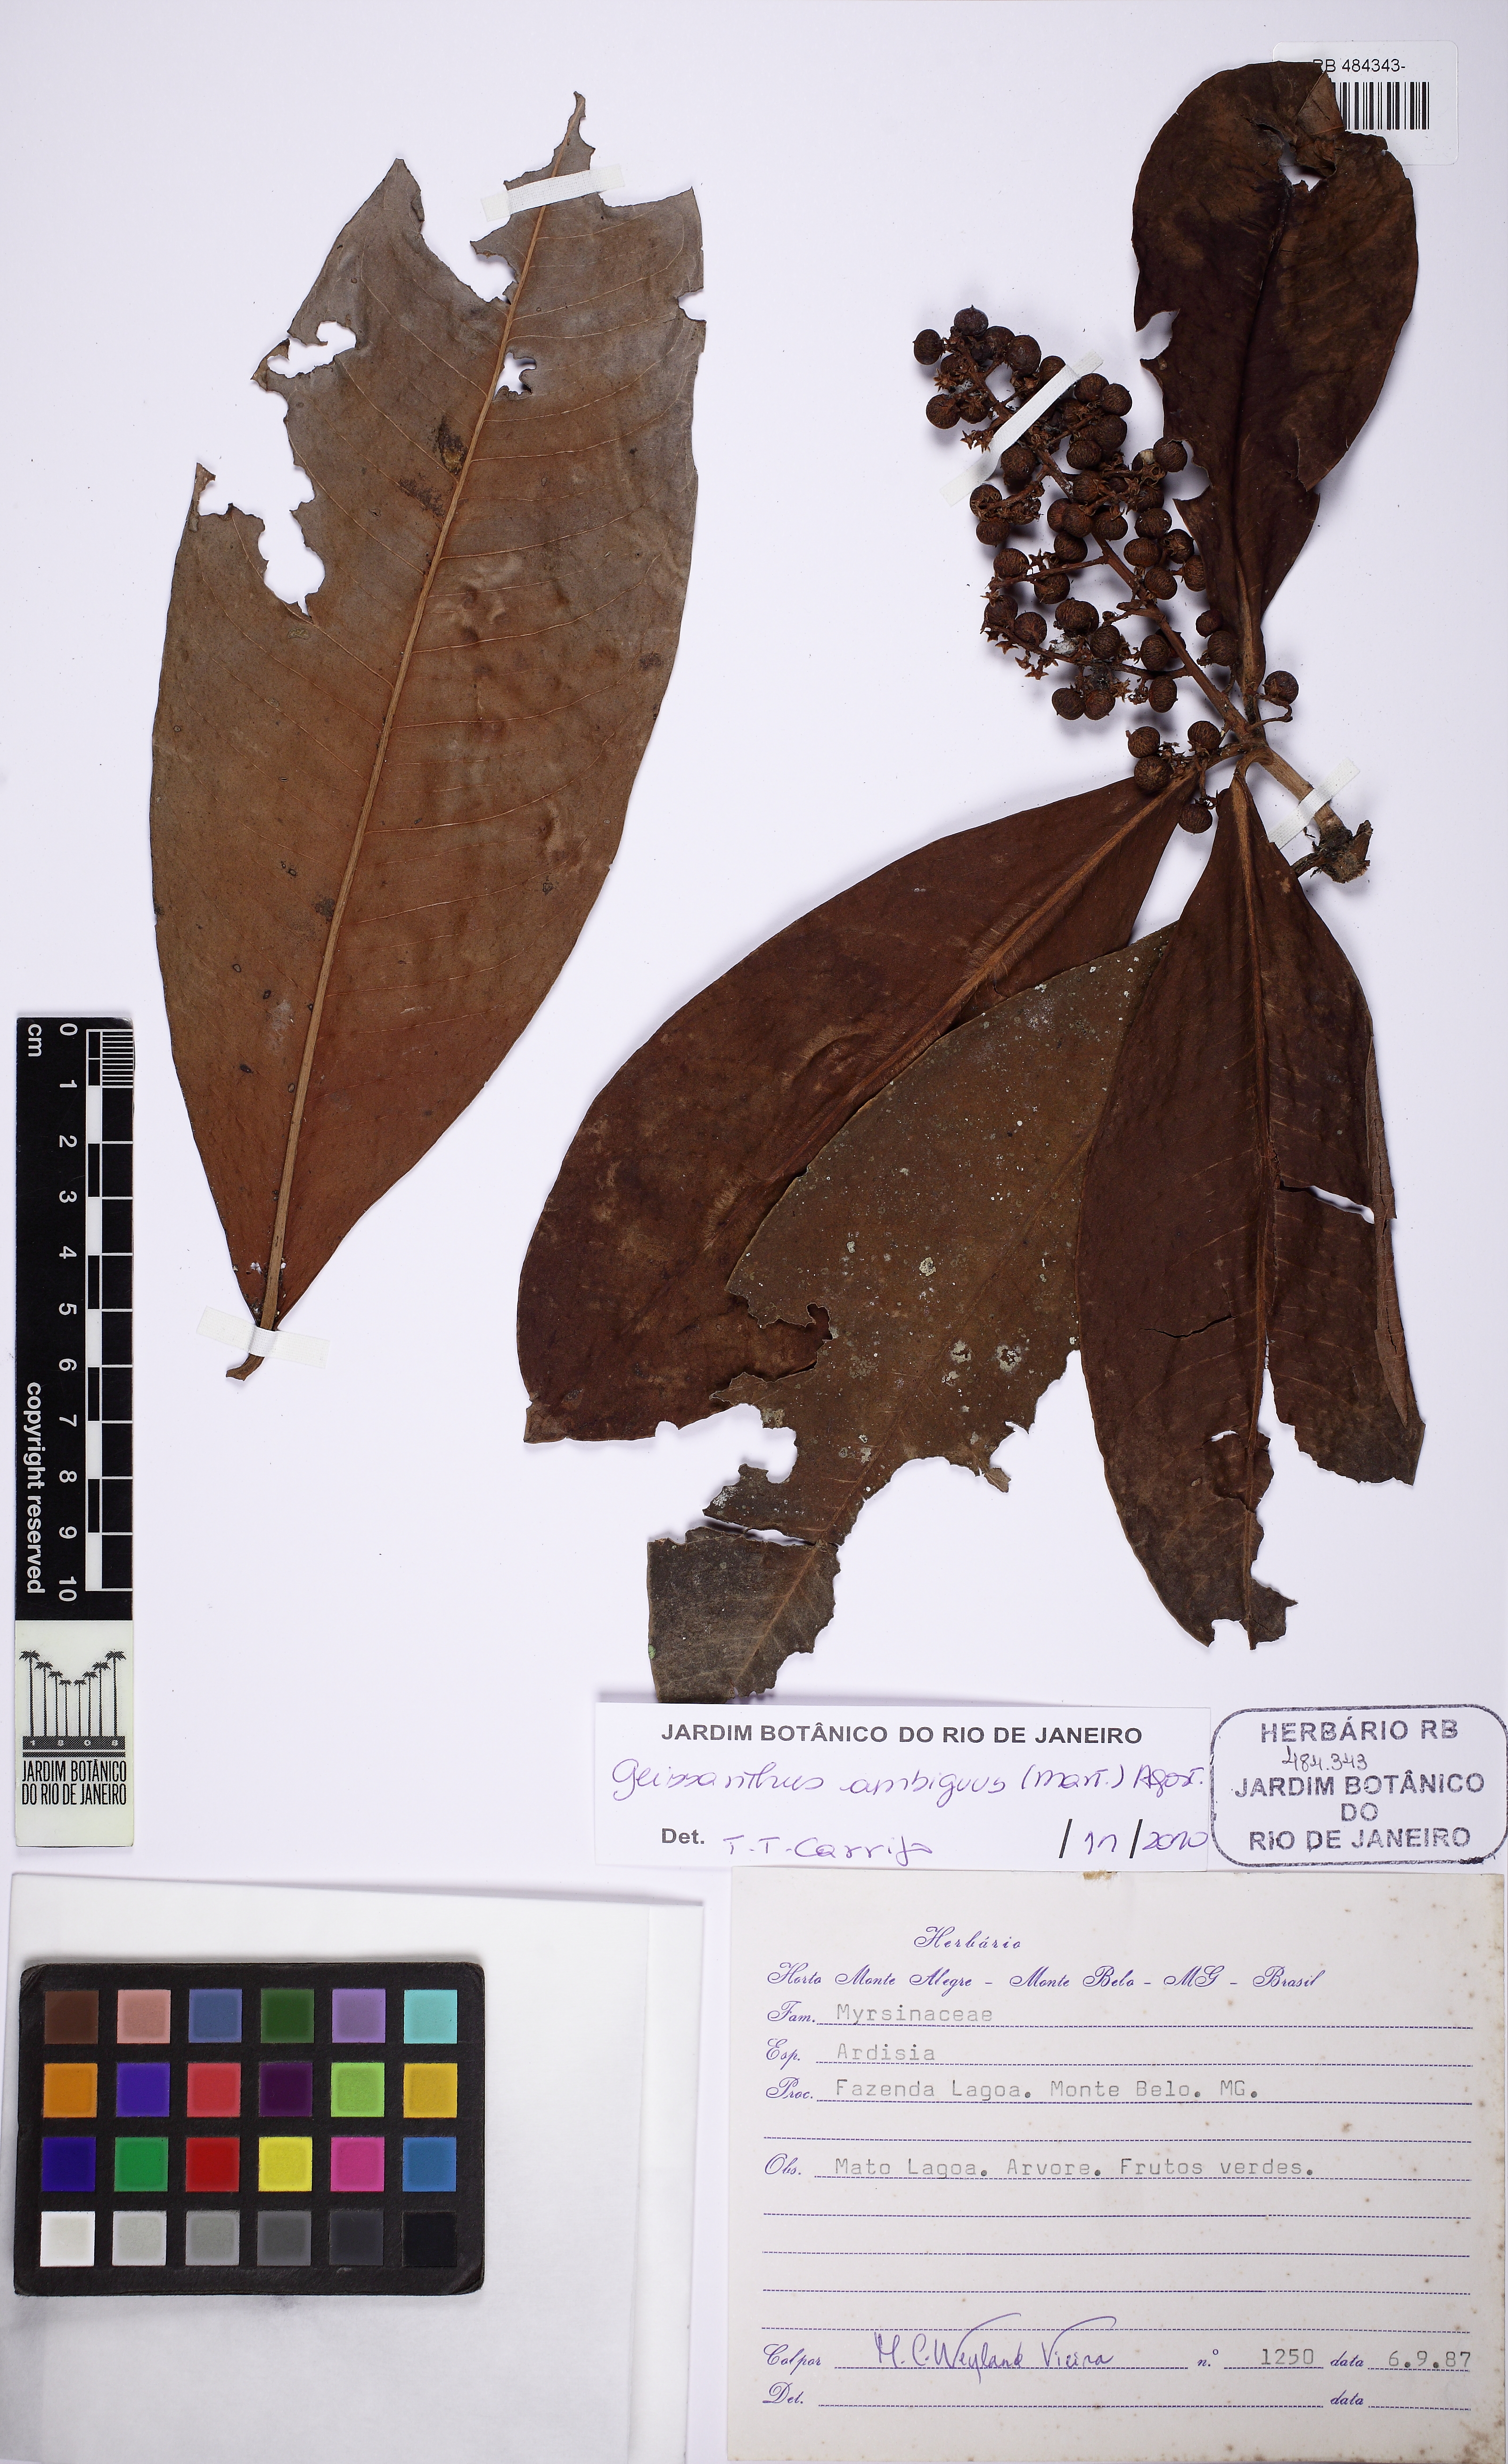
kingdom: Plantae
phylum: Tracheophyta
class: Magnoliopsida
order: Ericales
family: Primulaceae
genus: Geissanthus
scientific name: Geissanthus ambigua
